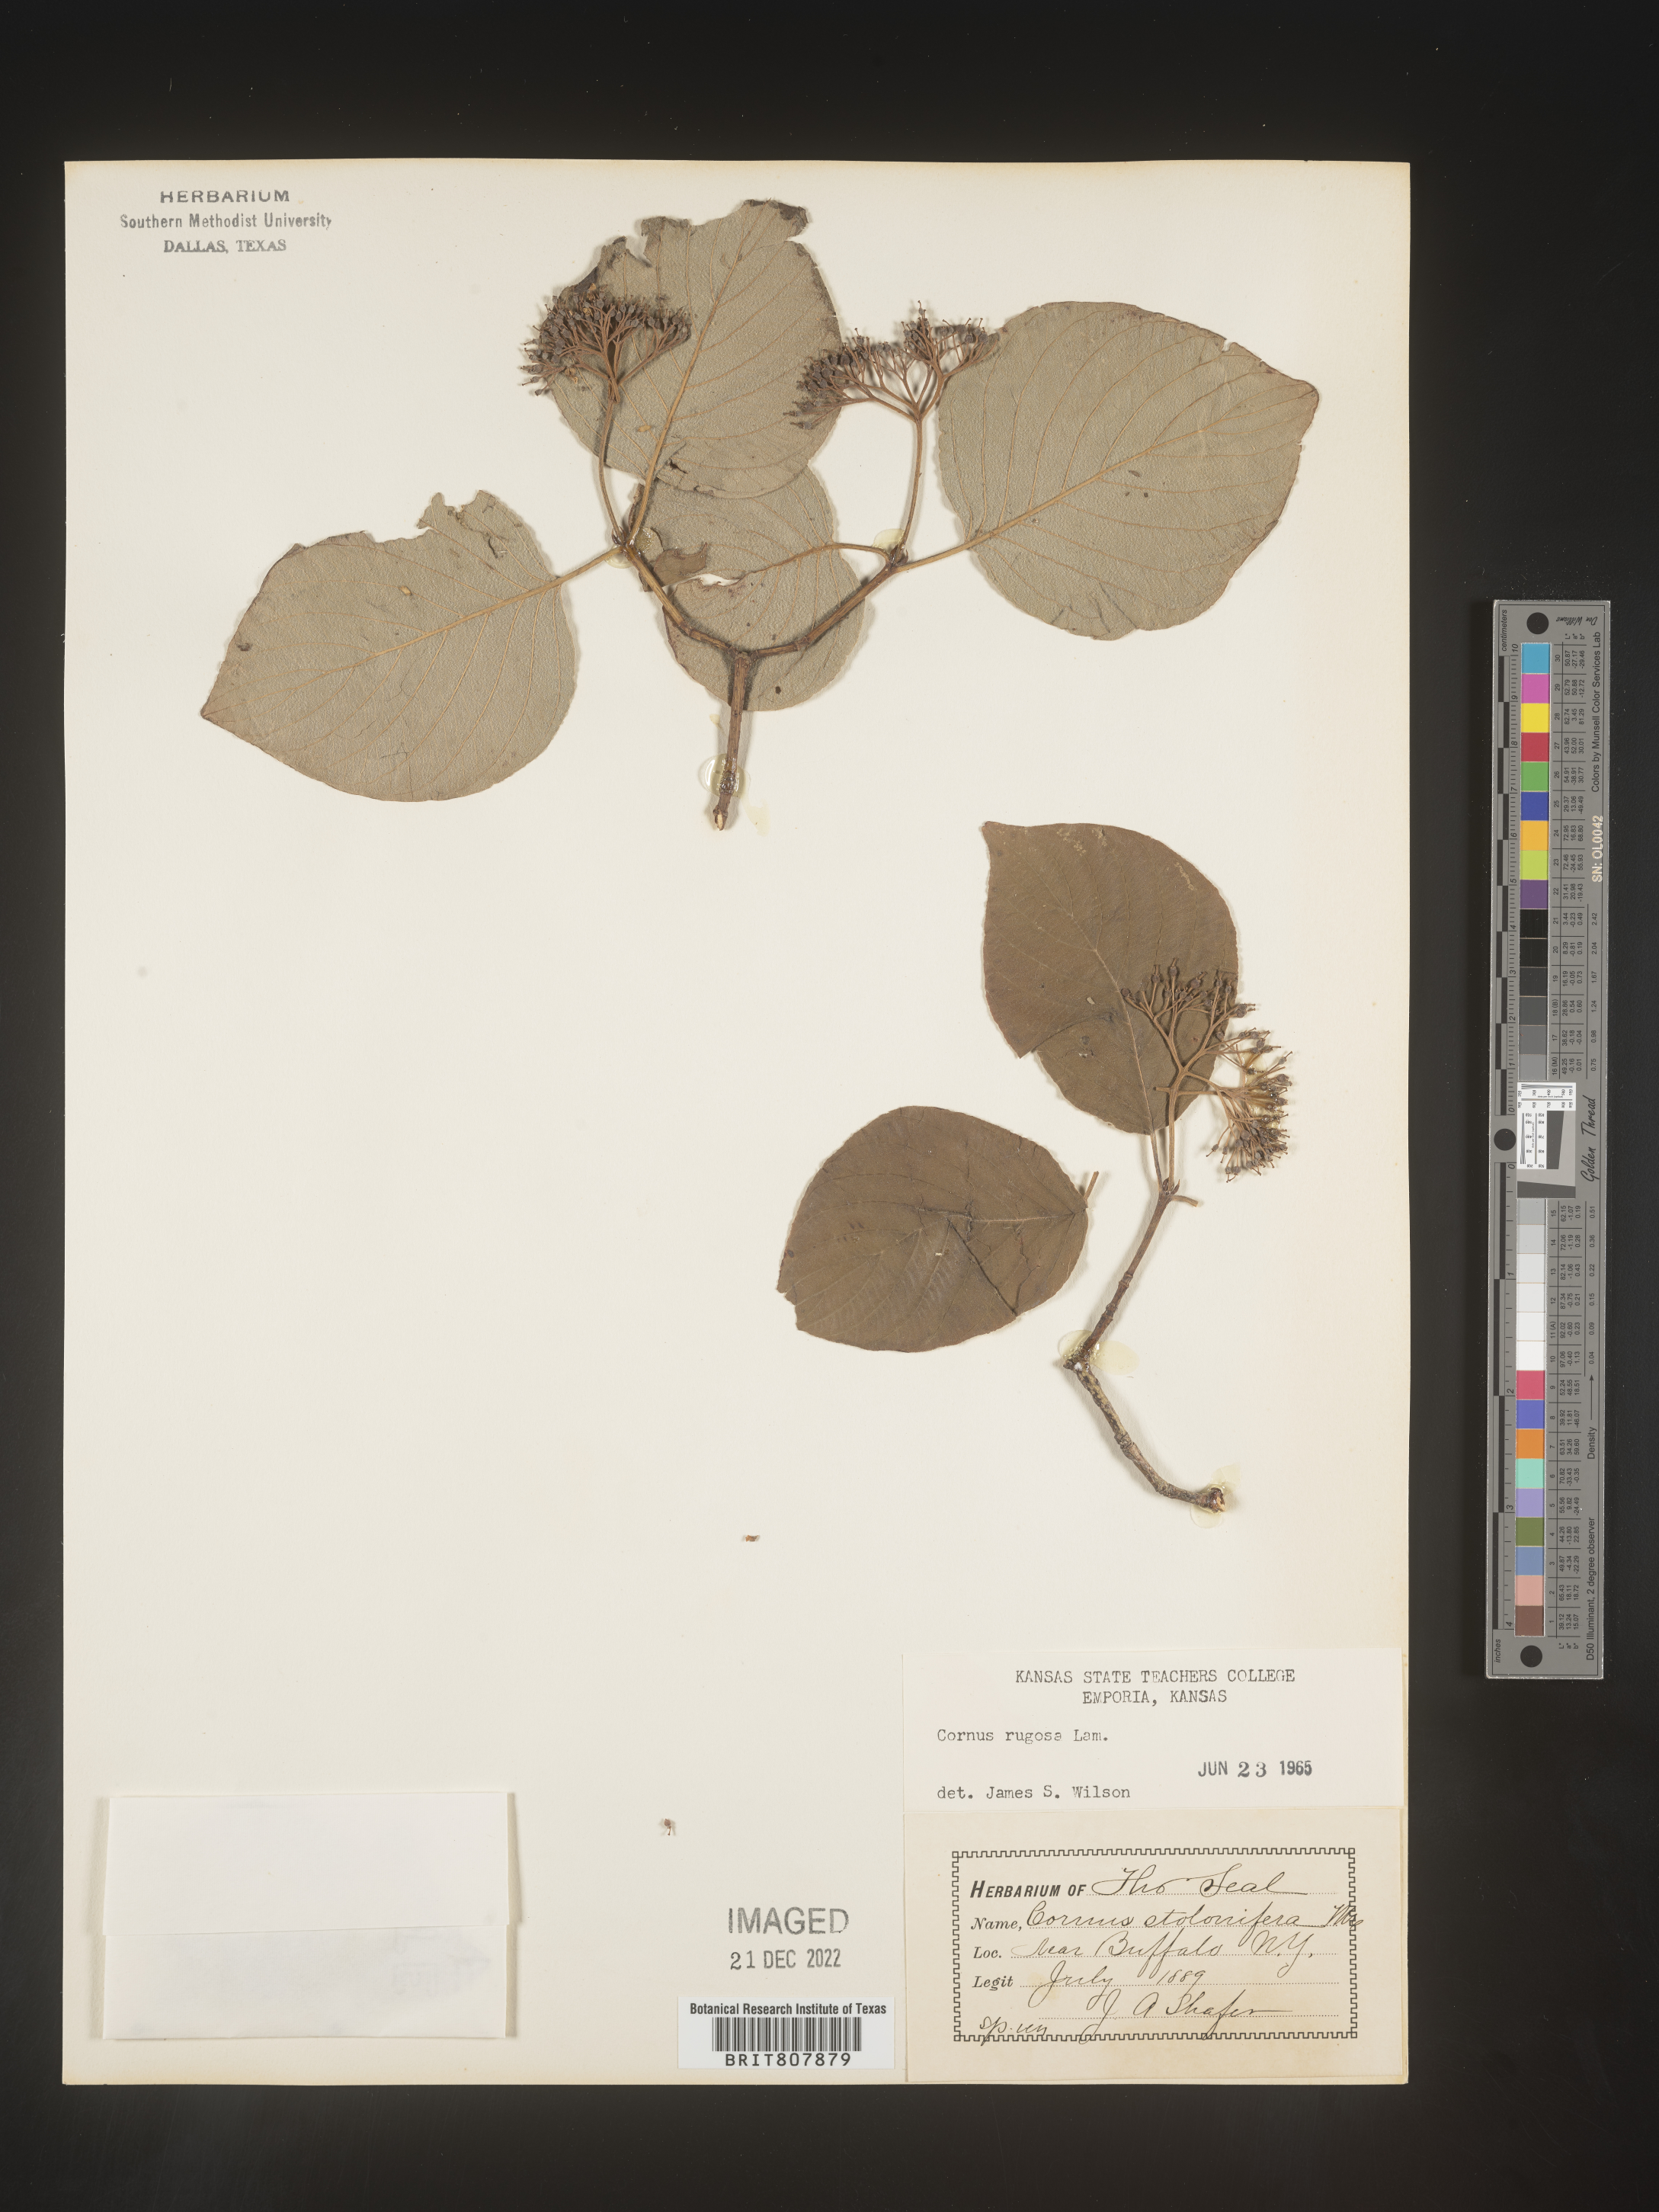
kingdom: Plantae
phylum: Tracheophyta
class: Magnoliopsida
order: Cornales
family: Cornaceae
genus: Cornus
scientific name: Cornus rugosa
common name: Round-leaf dogwood
